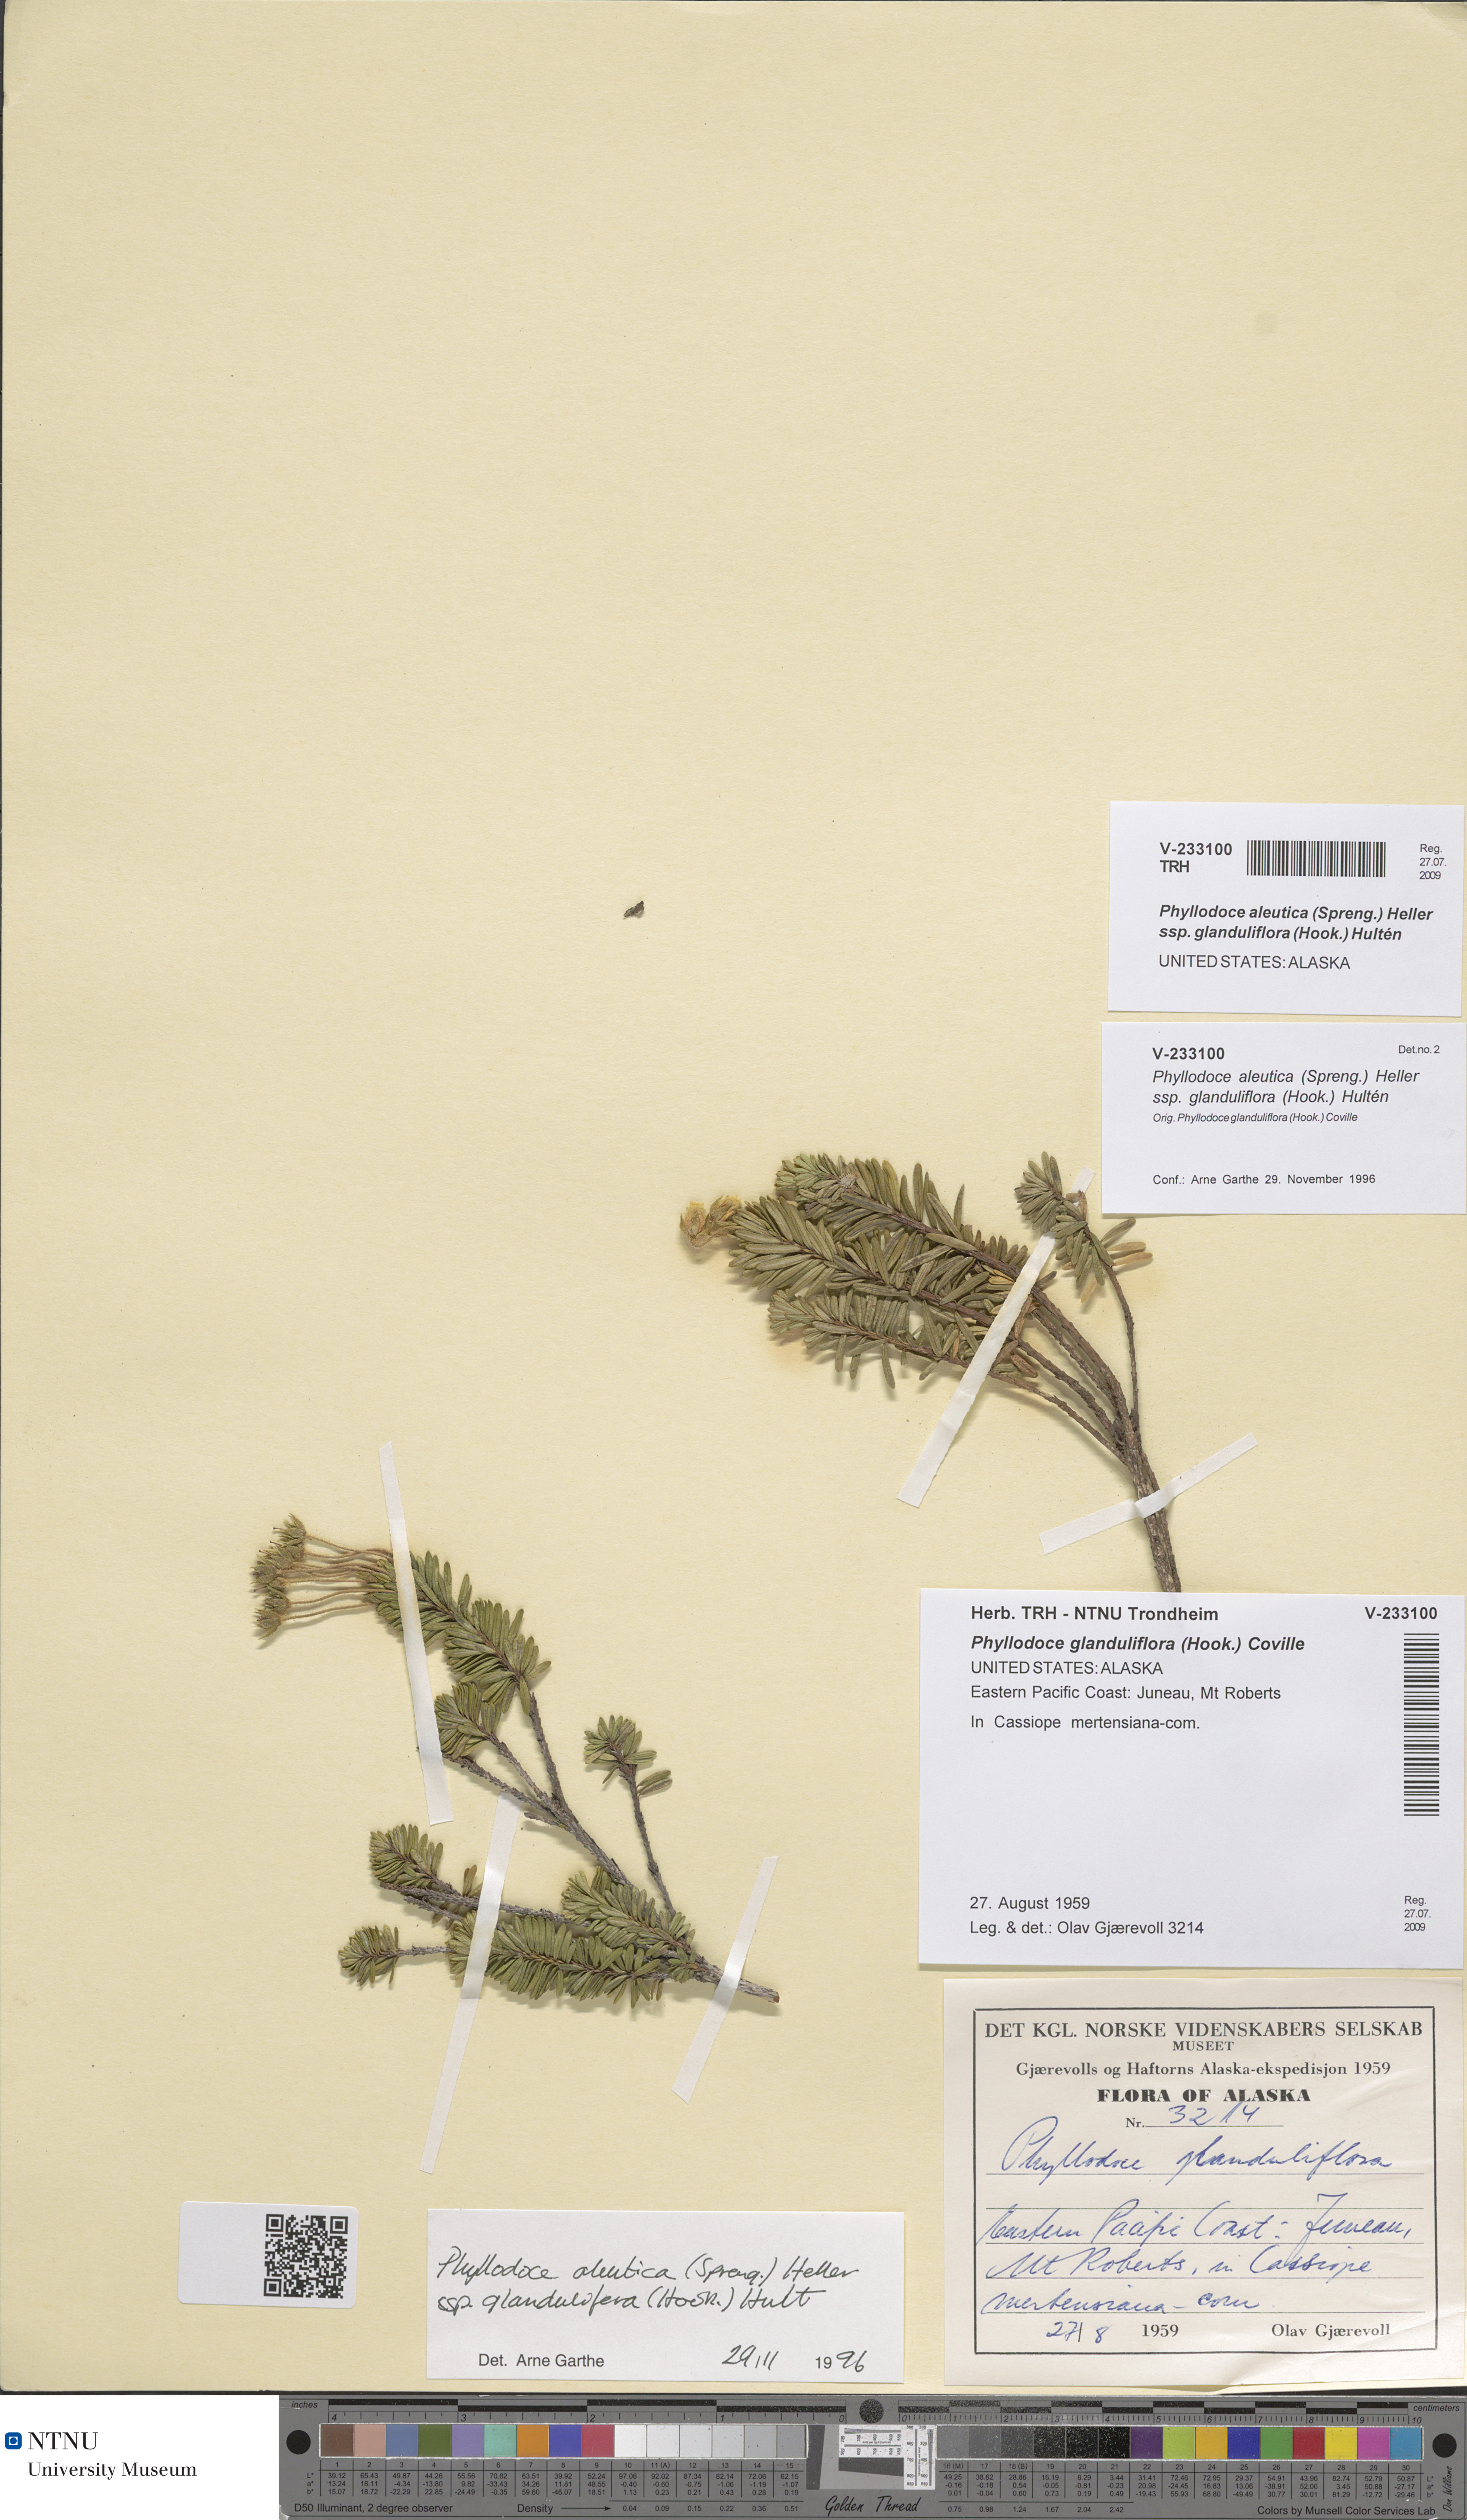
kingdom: Plantae
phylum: Tracheophyta
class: Magnoliopsida
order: Ericales
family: Ericaceae
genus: Phyllodoce
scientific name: Phyllodoce glanduliflora
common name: Cream mountain heather
